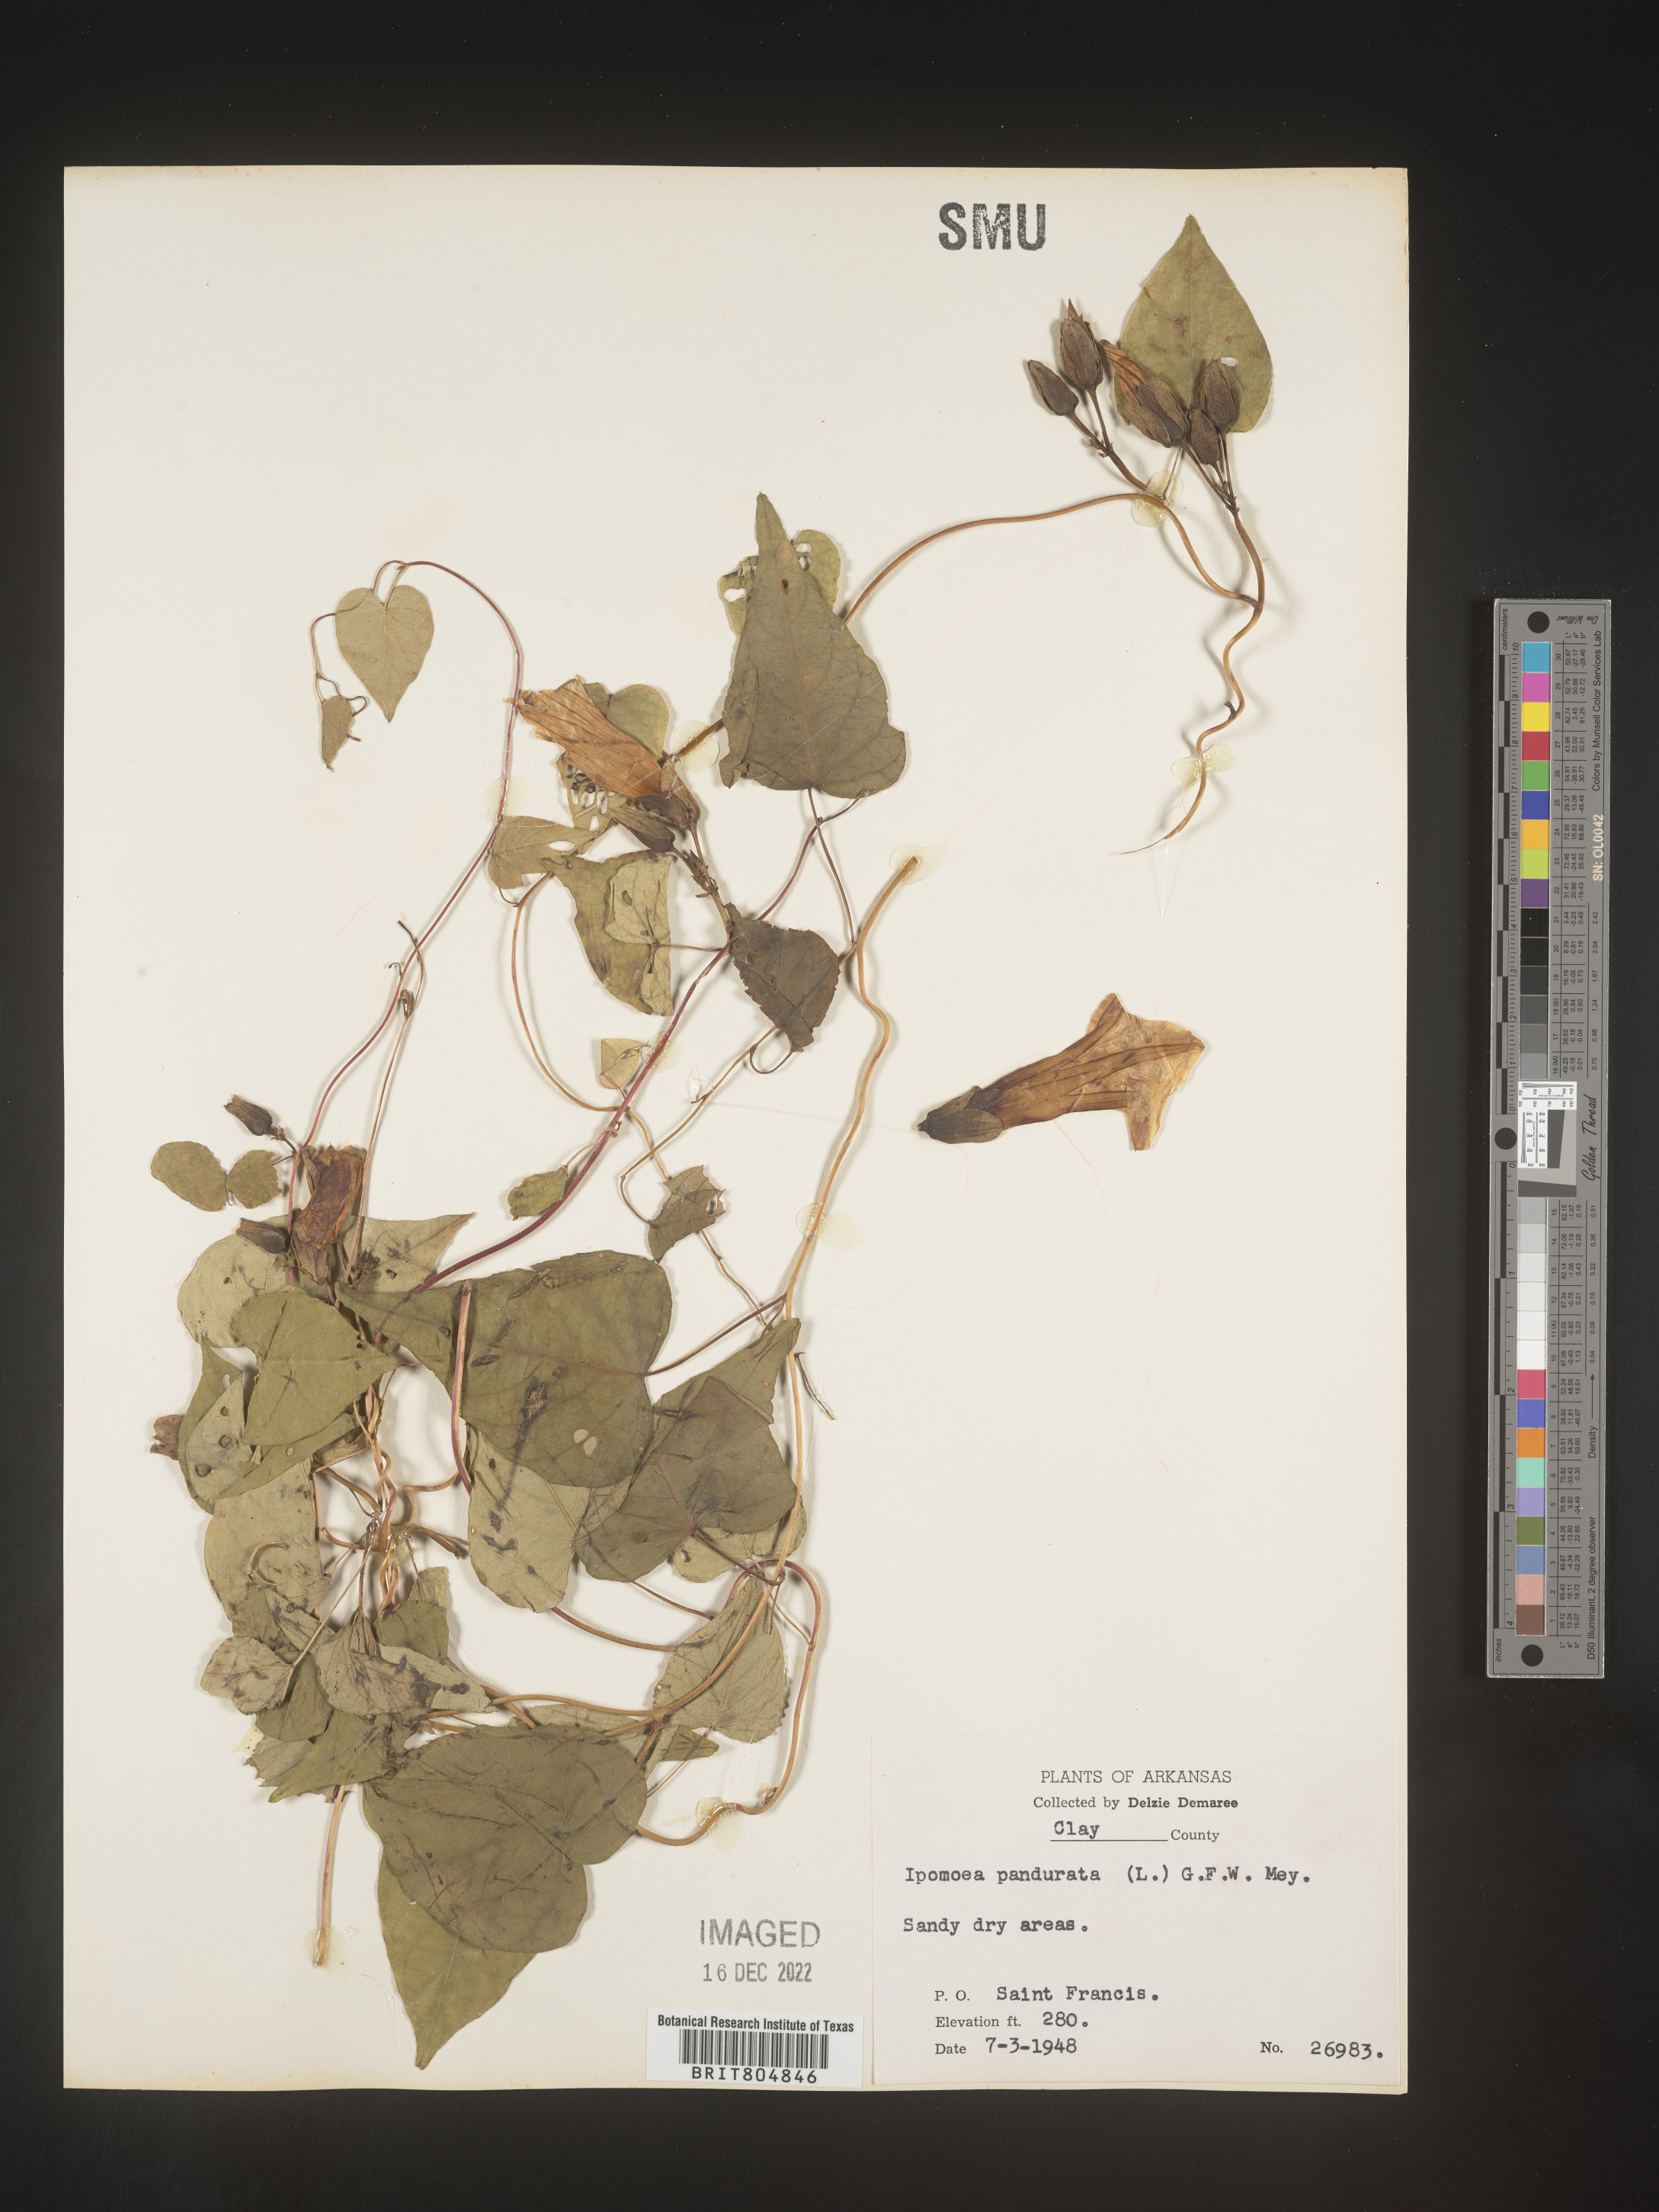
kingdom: Plantae
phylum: Tracheophyta
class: Magnoliopsida
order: Solanales
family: Convolvulaceae
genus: Ipomoea
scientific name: Ipomoea pandurata
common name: Man-of-the-earth
